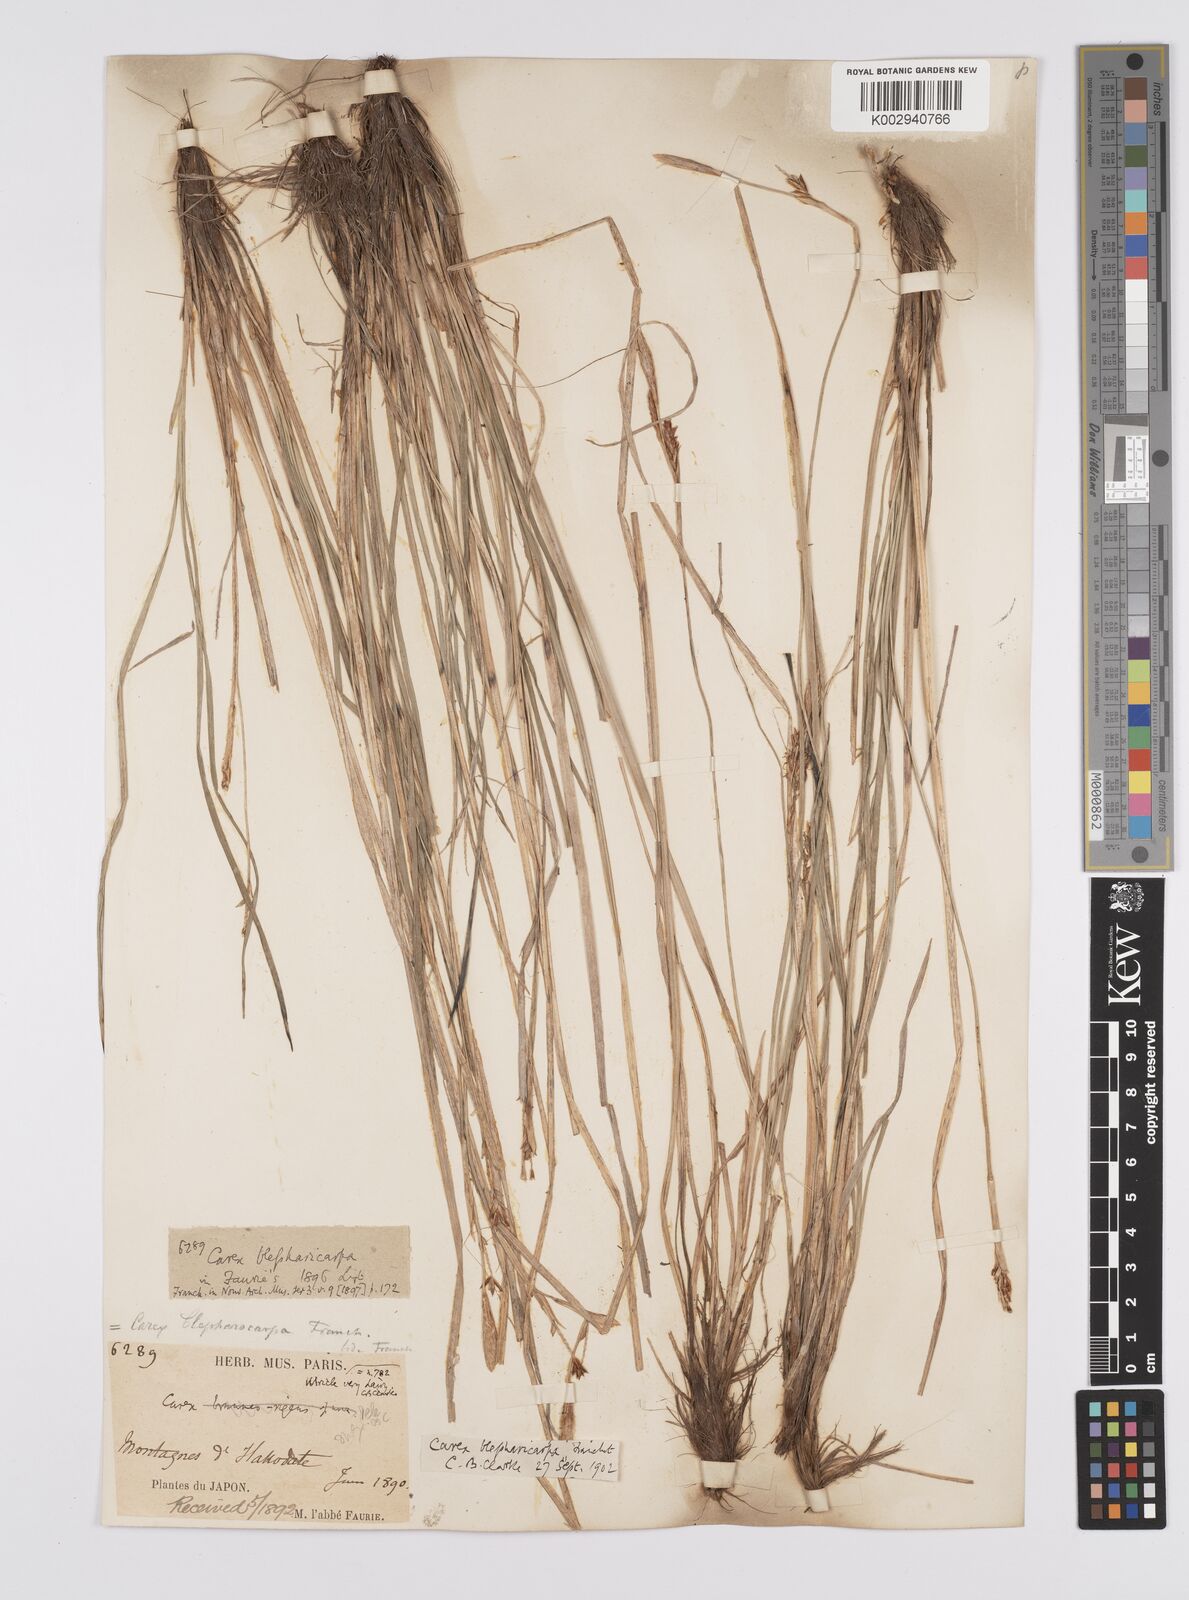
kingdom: Plantae
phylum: Tracheophyta
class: Liliopsida
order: Poales
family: Cyperaceae
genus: Carex
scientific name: Carex blepharicarpa
